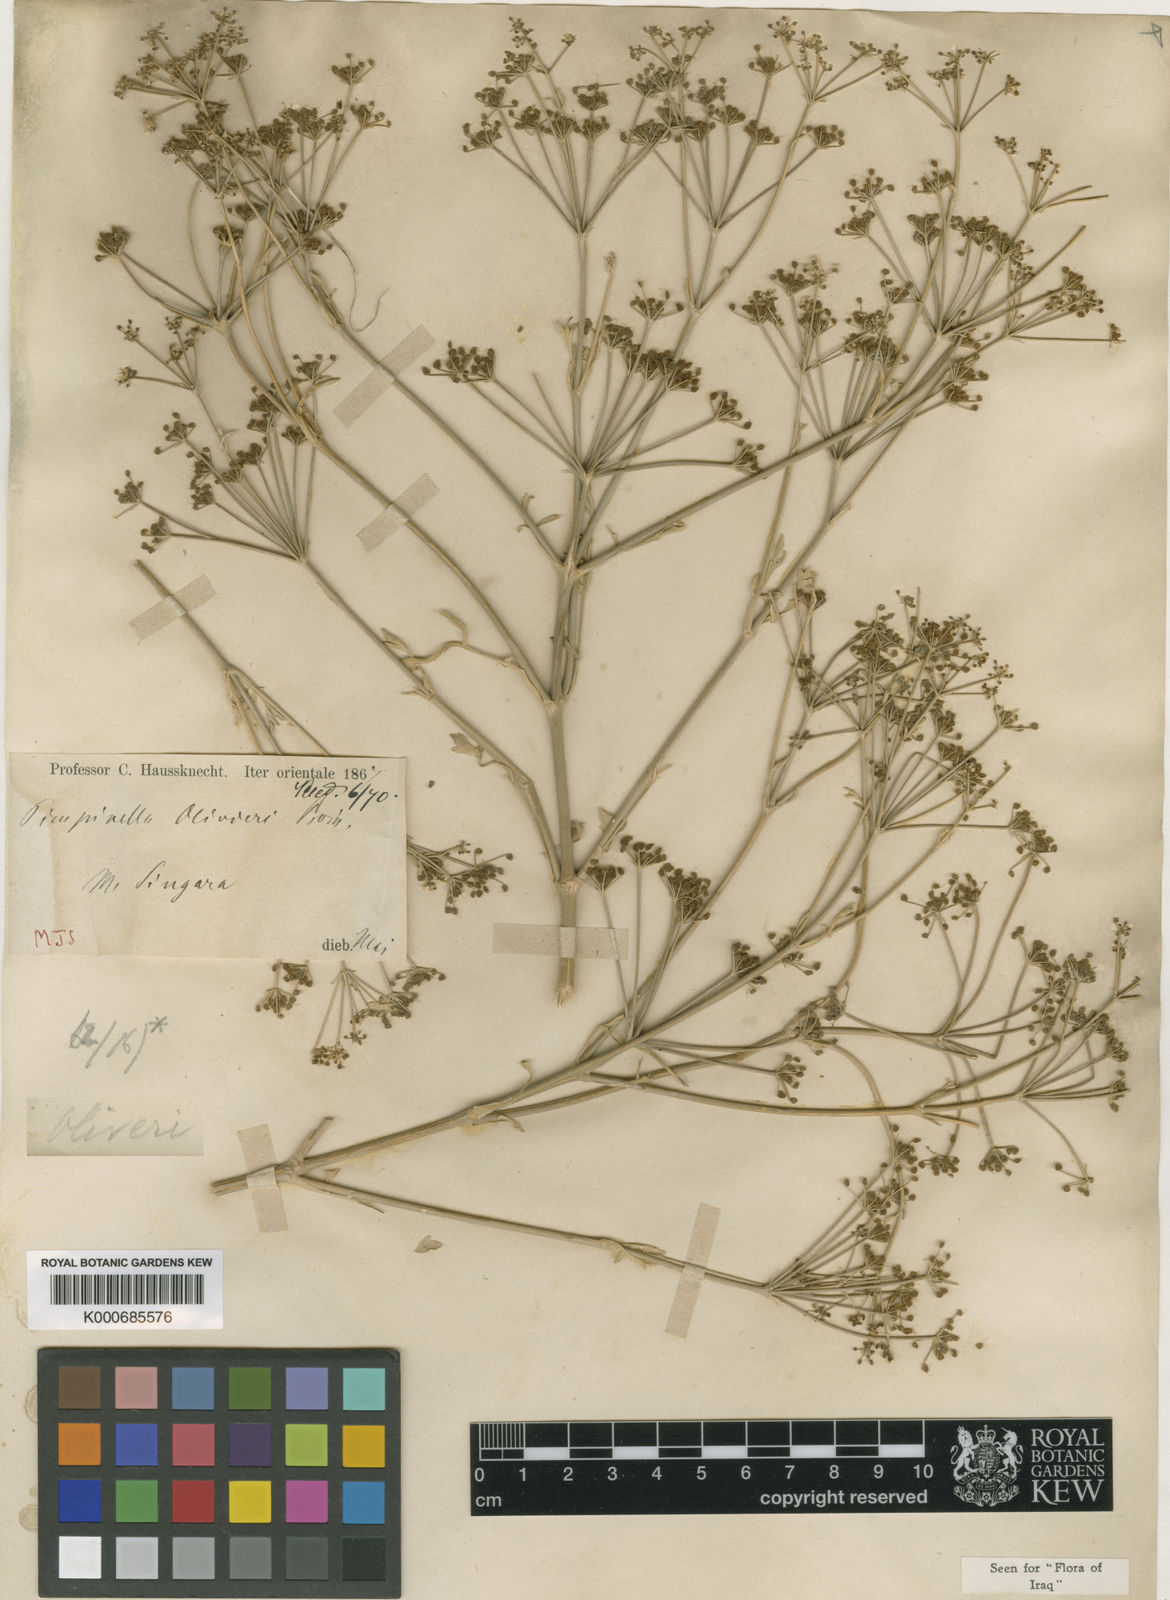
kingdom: Plantae
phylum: Tracheophyta
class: Magnoliopsida
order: Apiales
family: Apiaceae
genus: Pimpinella
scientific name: Pimpinella olivieri
